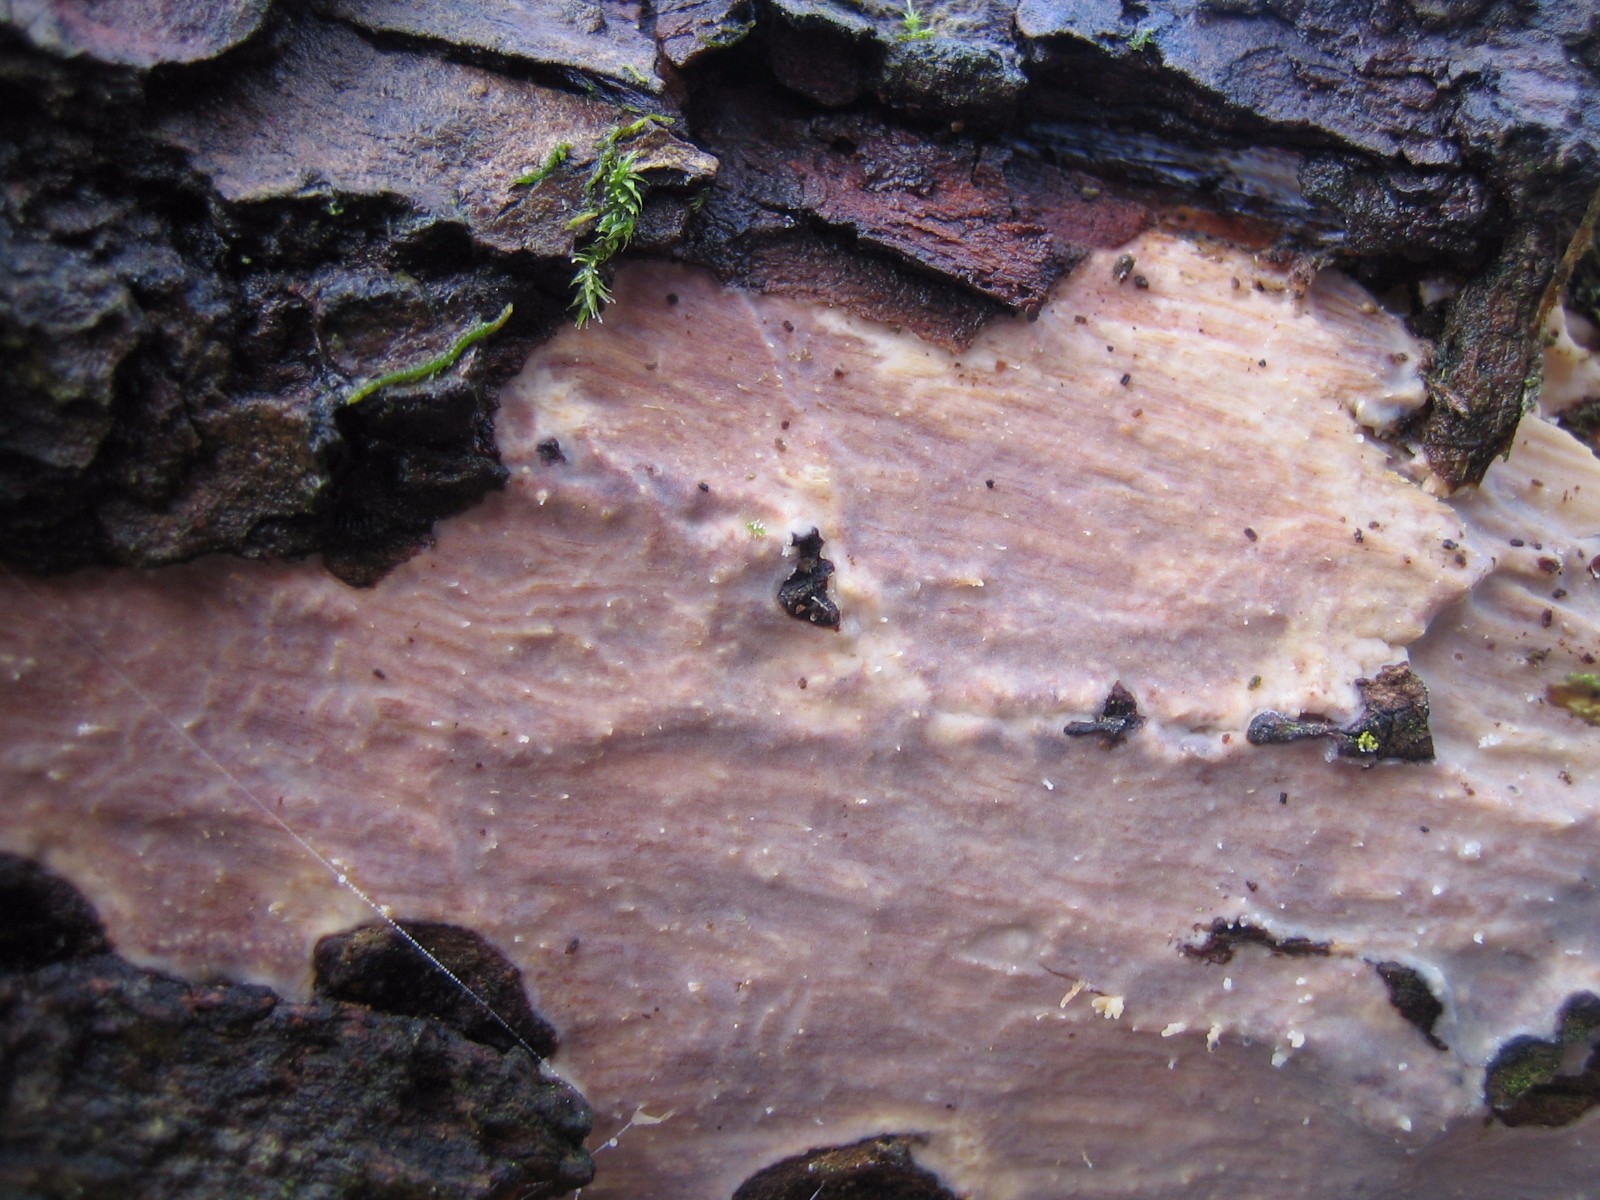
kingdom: Fungi
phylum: Basidiomycota
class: Agaricomycetes
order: Russulales
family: Peniophoraceae
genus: Peniophora
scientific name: Peniophora quercina
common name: ege-voksskind
